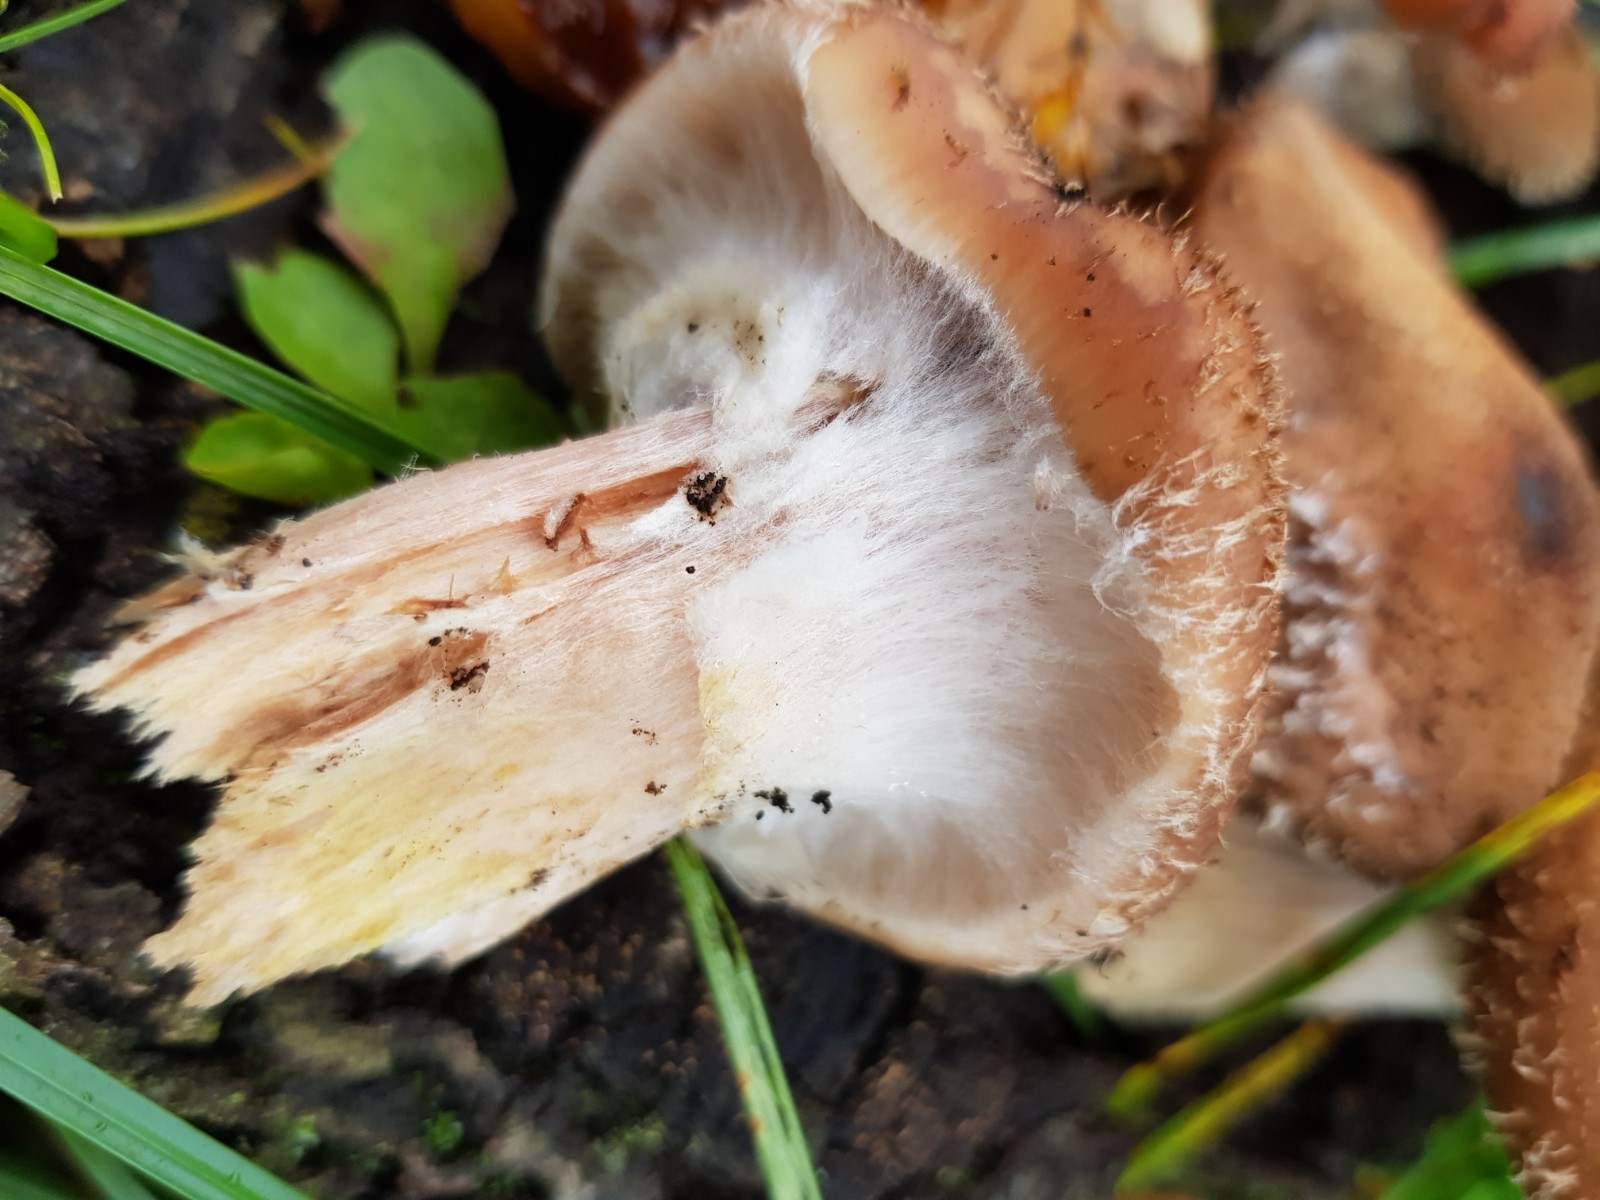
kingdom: Fungi
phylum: Basidiomycota
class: Agaricomycetes
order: Agaricales
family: Physalacriaceae
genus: Armillaria
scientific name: Armillaria lutea
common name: køllestokket honningsvamp
